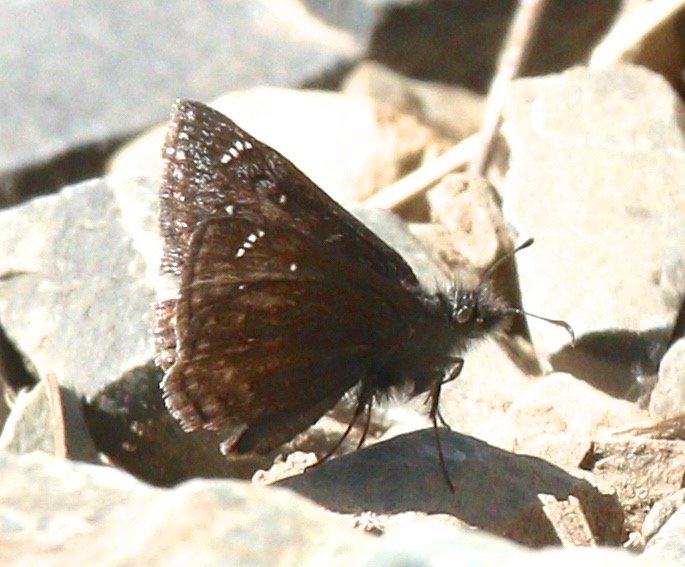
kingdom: Animalia
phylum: Arthropoda
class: Insecta
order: Lepidoptera
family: Hesperiidae
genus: Gesta
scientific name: Gesta
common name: Persius Duskywing
